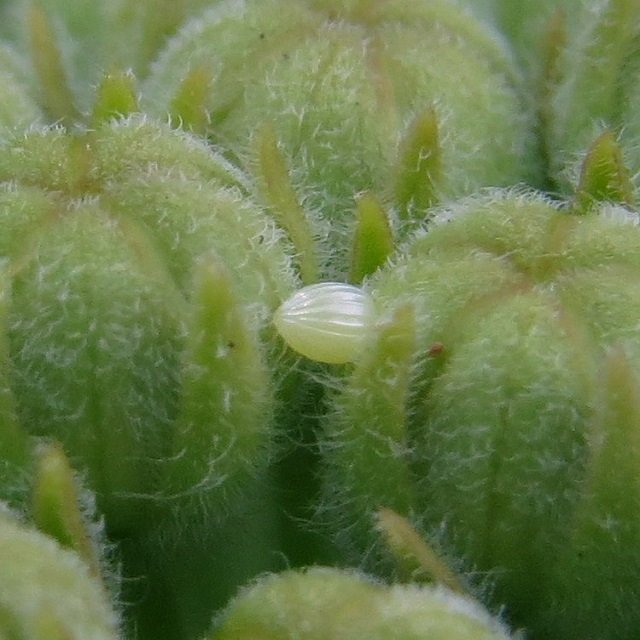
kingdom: Animalia
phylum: Arthropoda
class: Insecta
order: Lepidoptera
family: Nymphalidae
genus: Danaus
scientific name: Danaus plexippus
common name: Monarch
